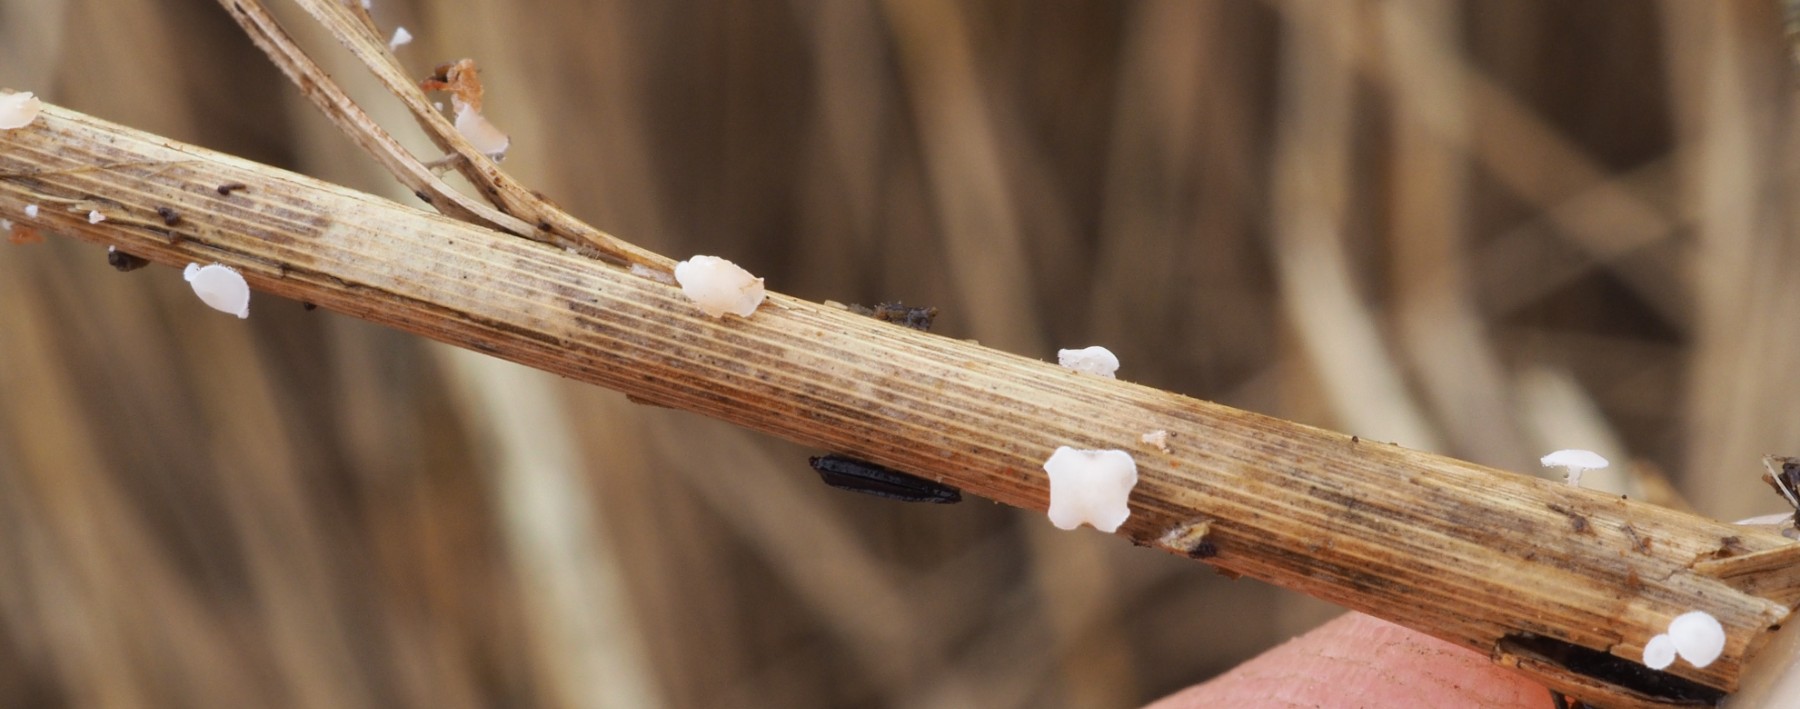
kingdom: Fungi
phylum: Ascomycota
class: Leotiomycetes
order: Helotiales
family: Lachnaceae
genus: Lachnum
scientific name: Lachnum controversum
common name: tagrør-frynseskive
